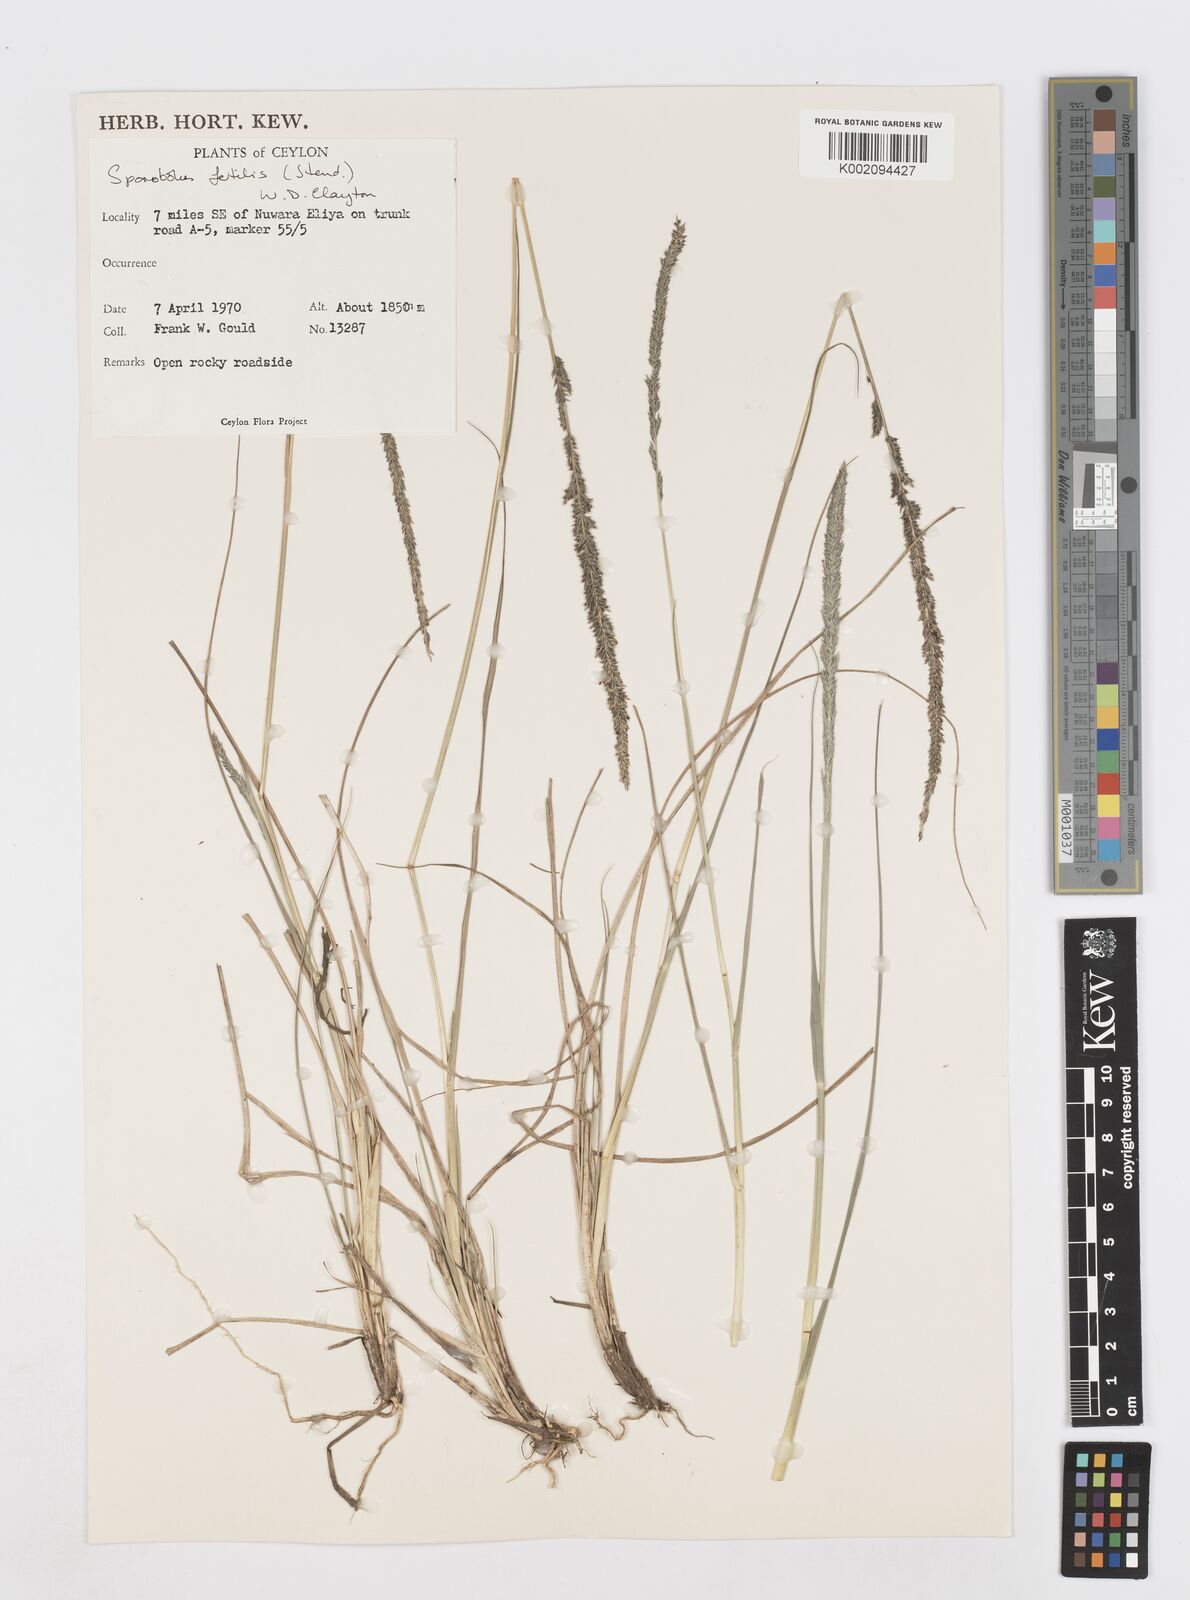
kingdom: Plantae
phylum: Tracheophyta
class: Liliopsida
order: Poales
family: Poaceae
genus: Sporobolus
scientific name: Sporobolus fertilis
